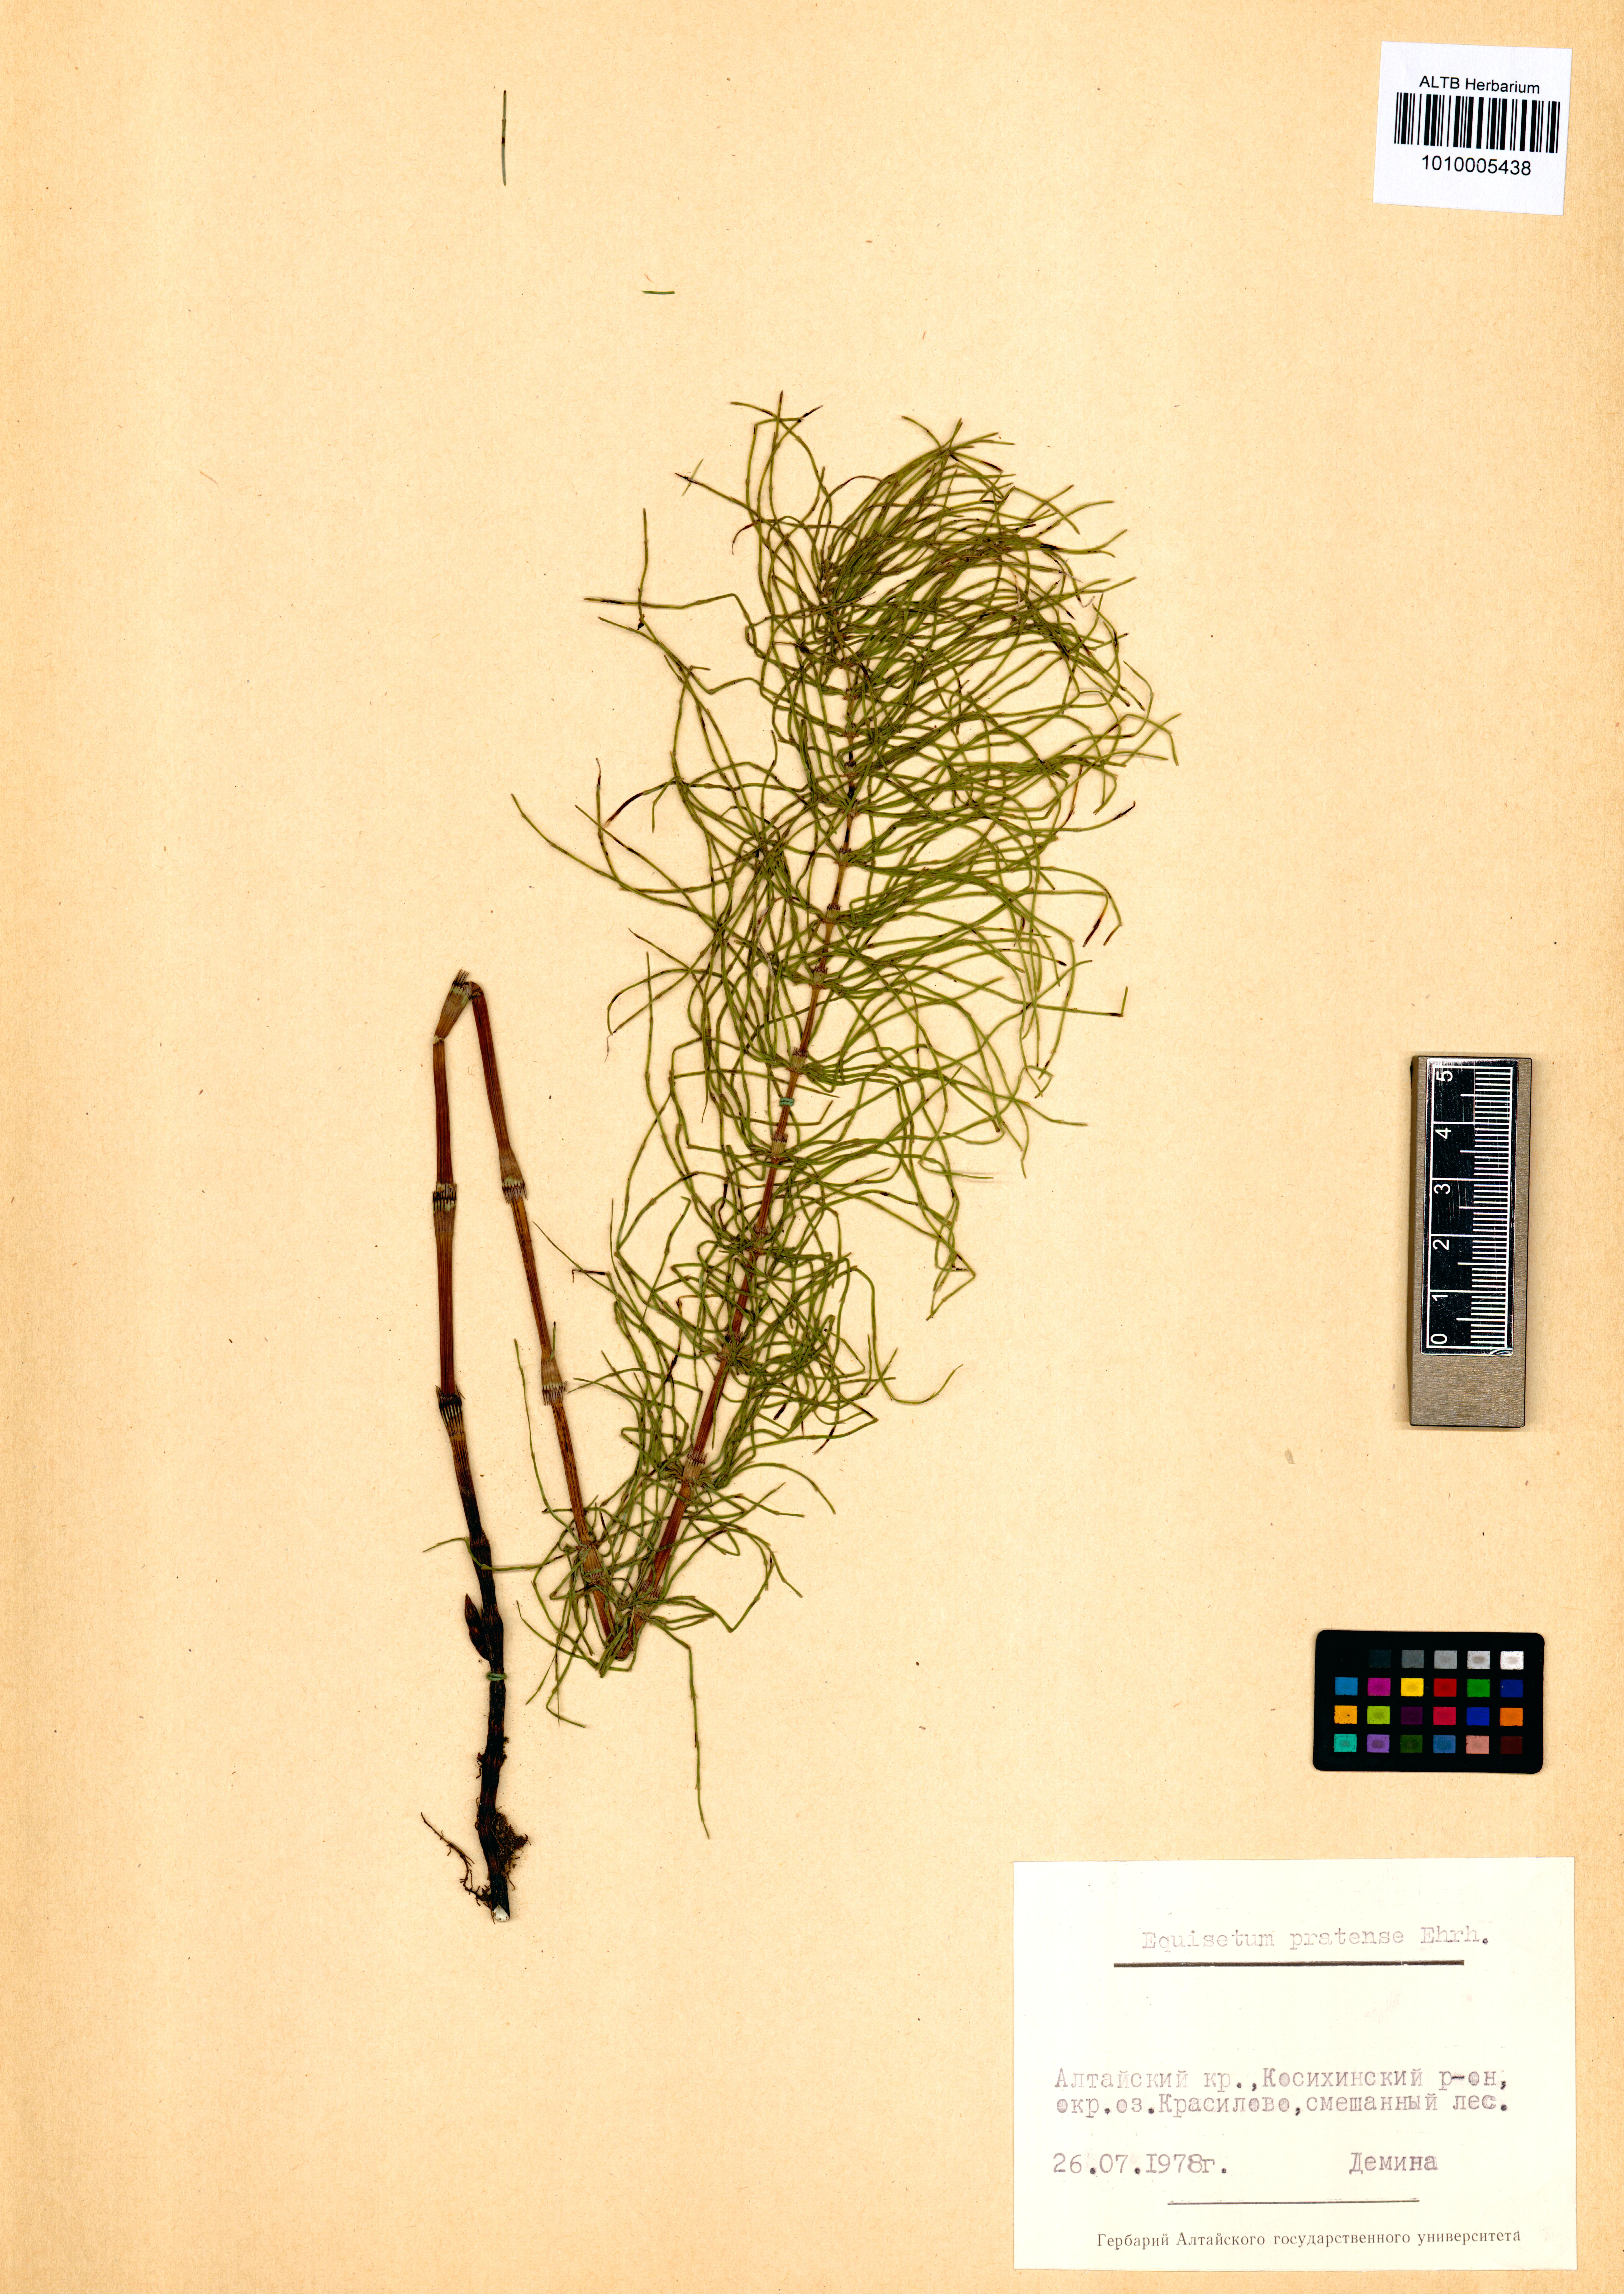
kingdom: Plantae
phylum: Tracheophyta
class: Polypodiopsida
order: Equisetales
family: Equisetaceae
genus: Equisetum
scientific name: Equisetum pratense
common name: Meadow horsetail
